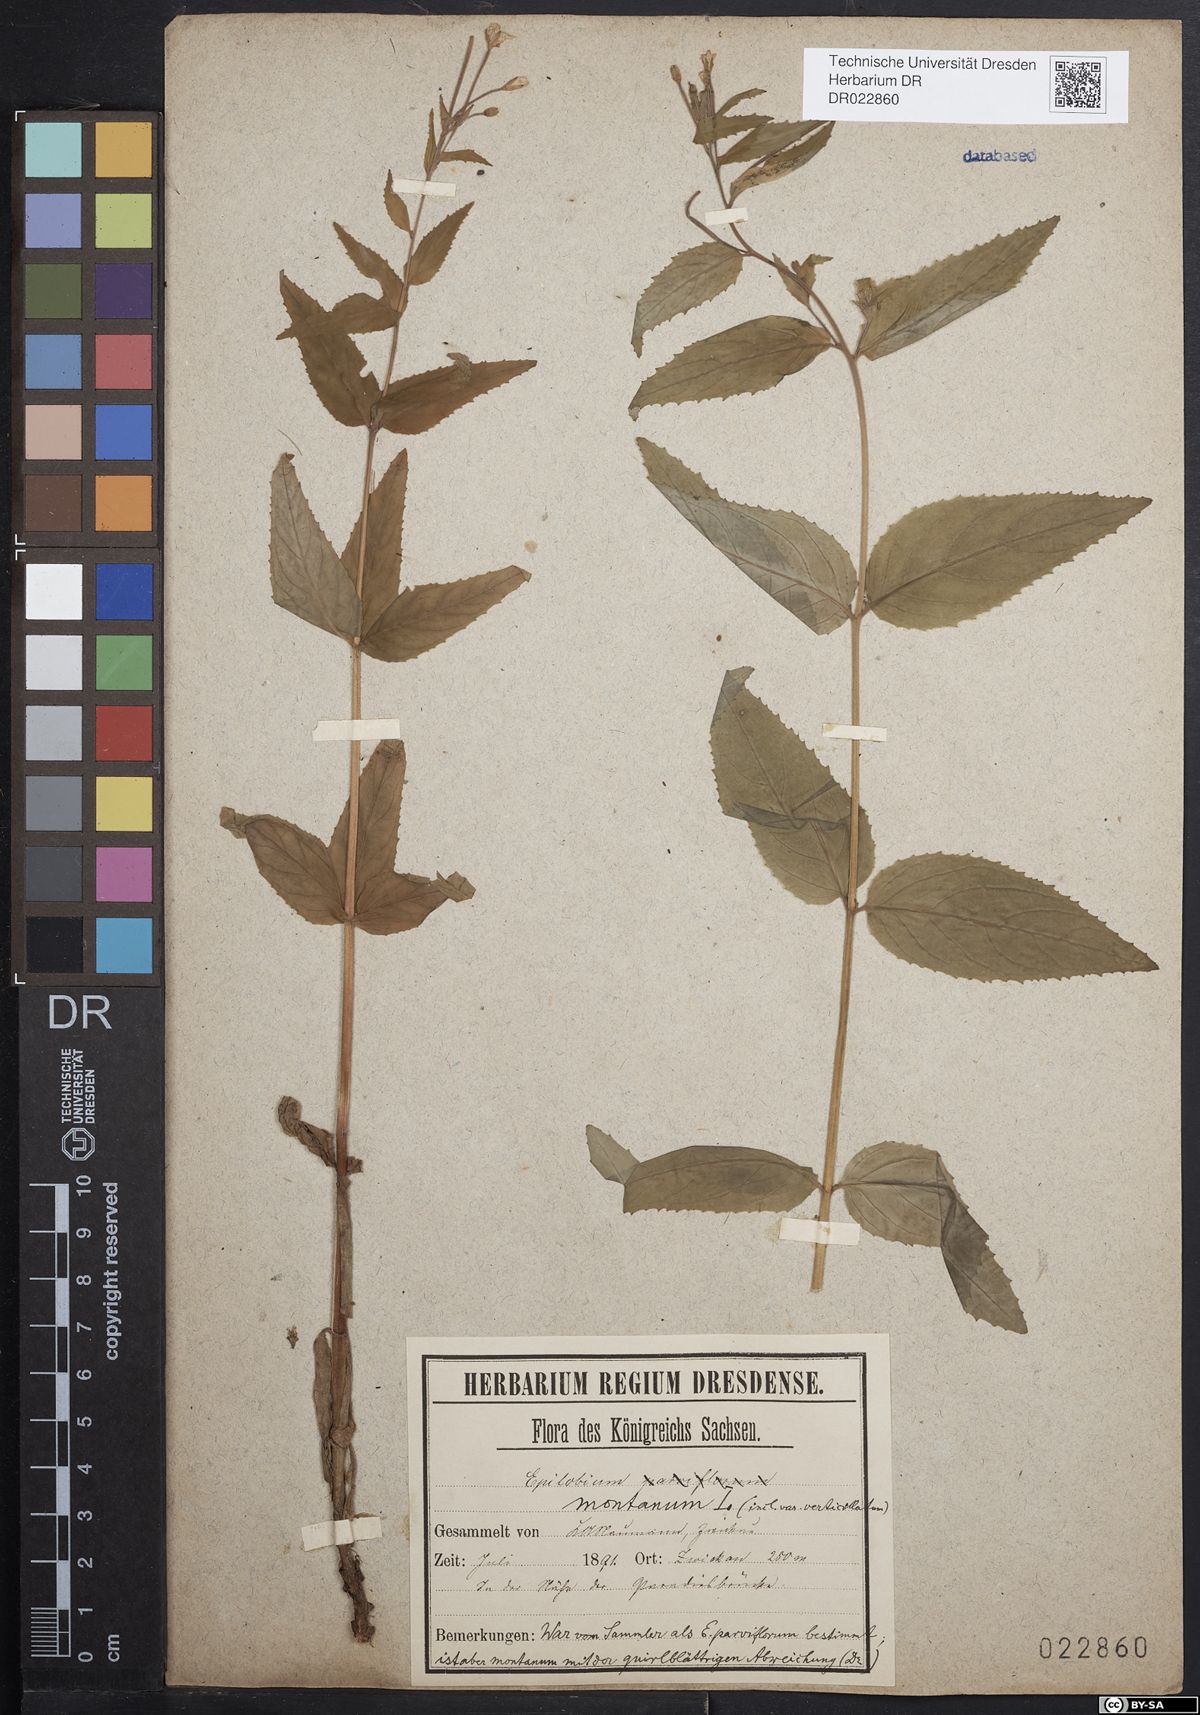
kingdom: Plantae
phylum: Tracheophyta
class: Magnoliopsida
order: Myrtales
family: Onagraceae
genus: Epilobium
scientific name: Epilobium montanum
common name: Broad-leaved willowherb
